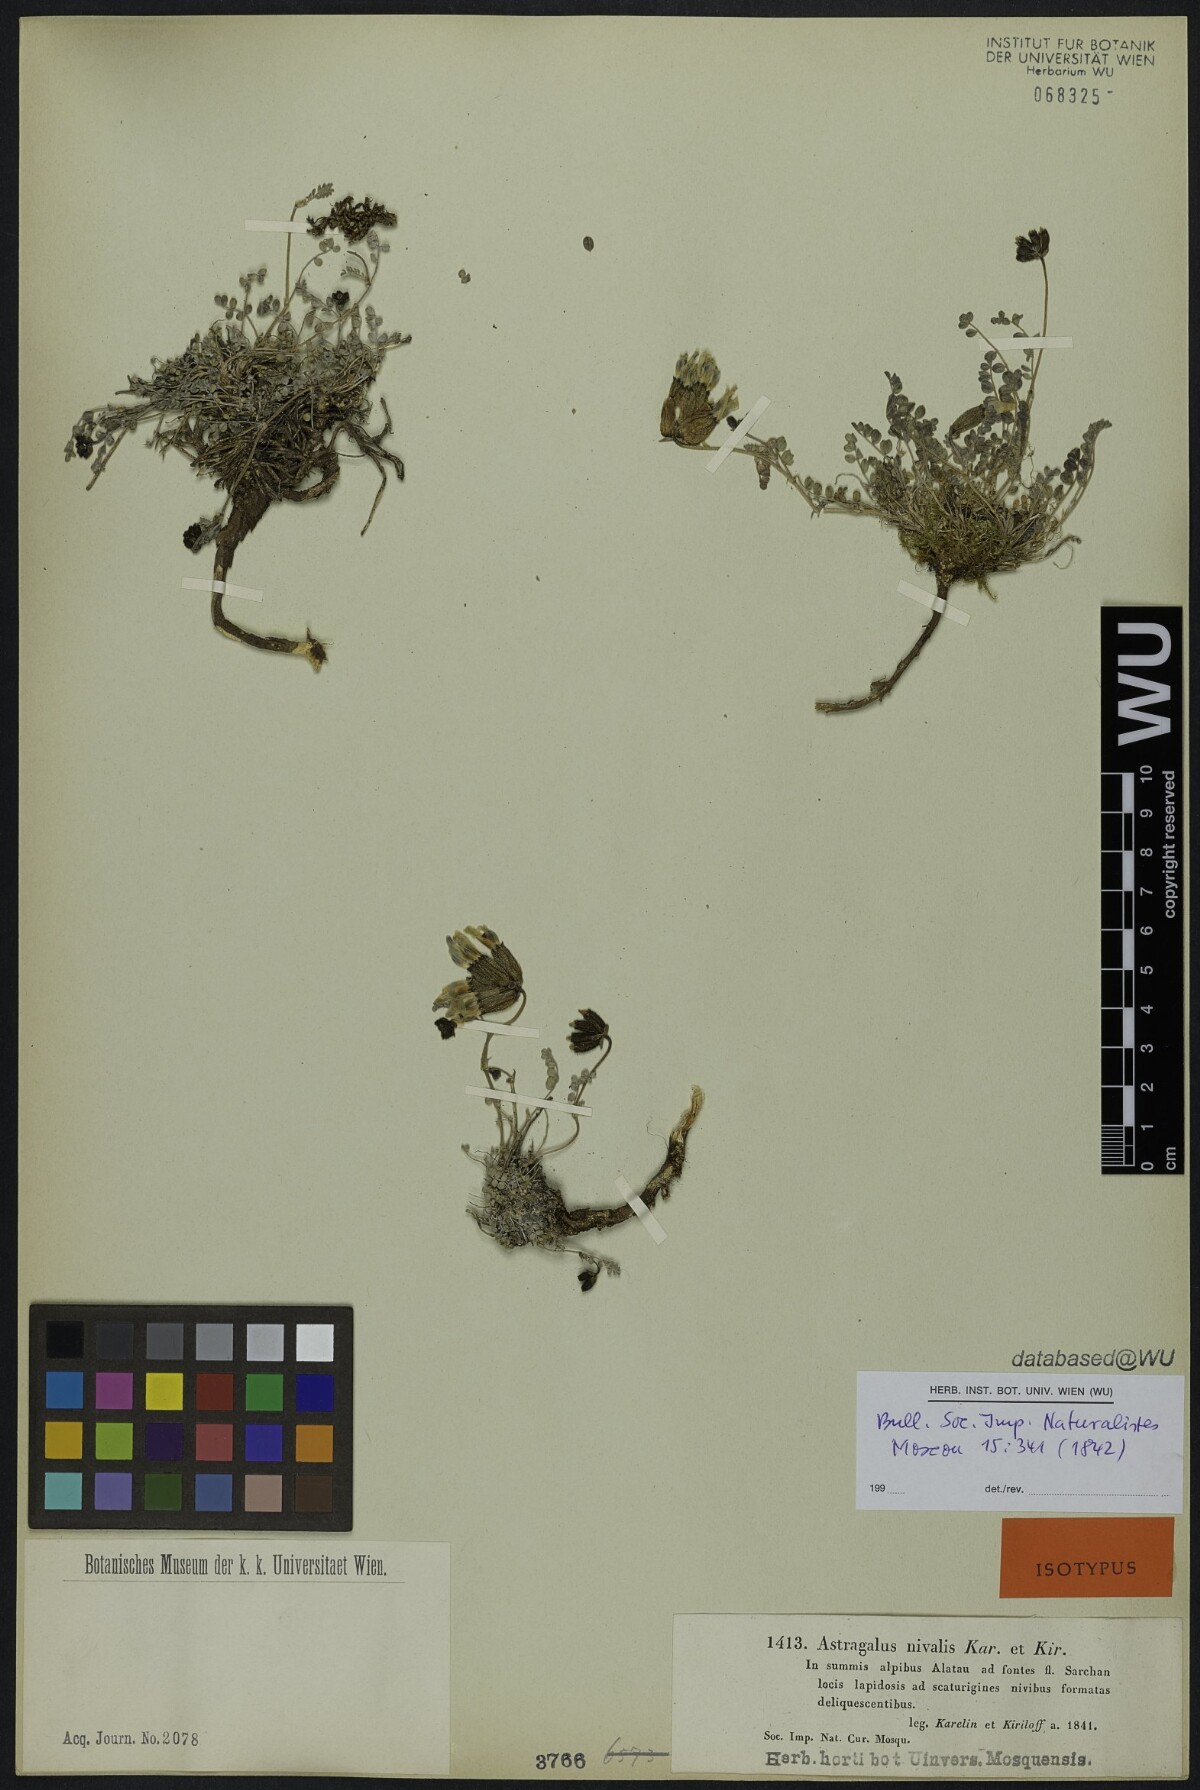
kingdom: Plantae
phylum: Tracheophyta
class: Magnoliopsida
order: Fabales
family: Fabaceae
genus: Astragalus
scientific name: Astragalus nivalis
